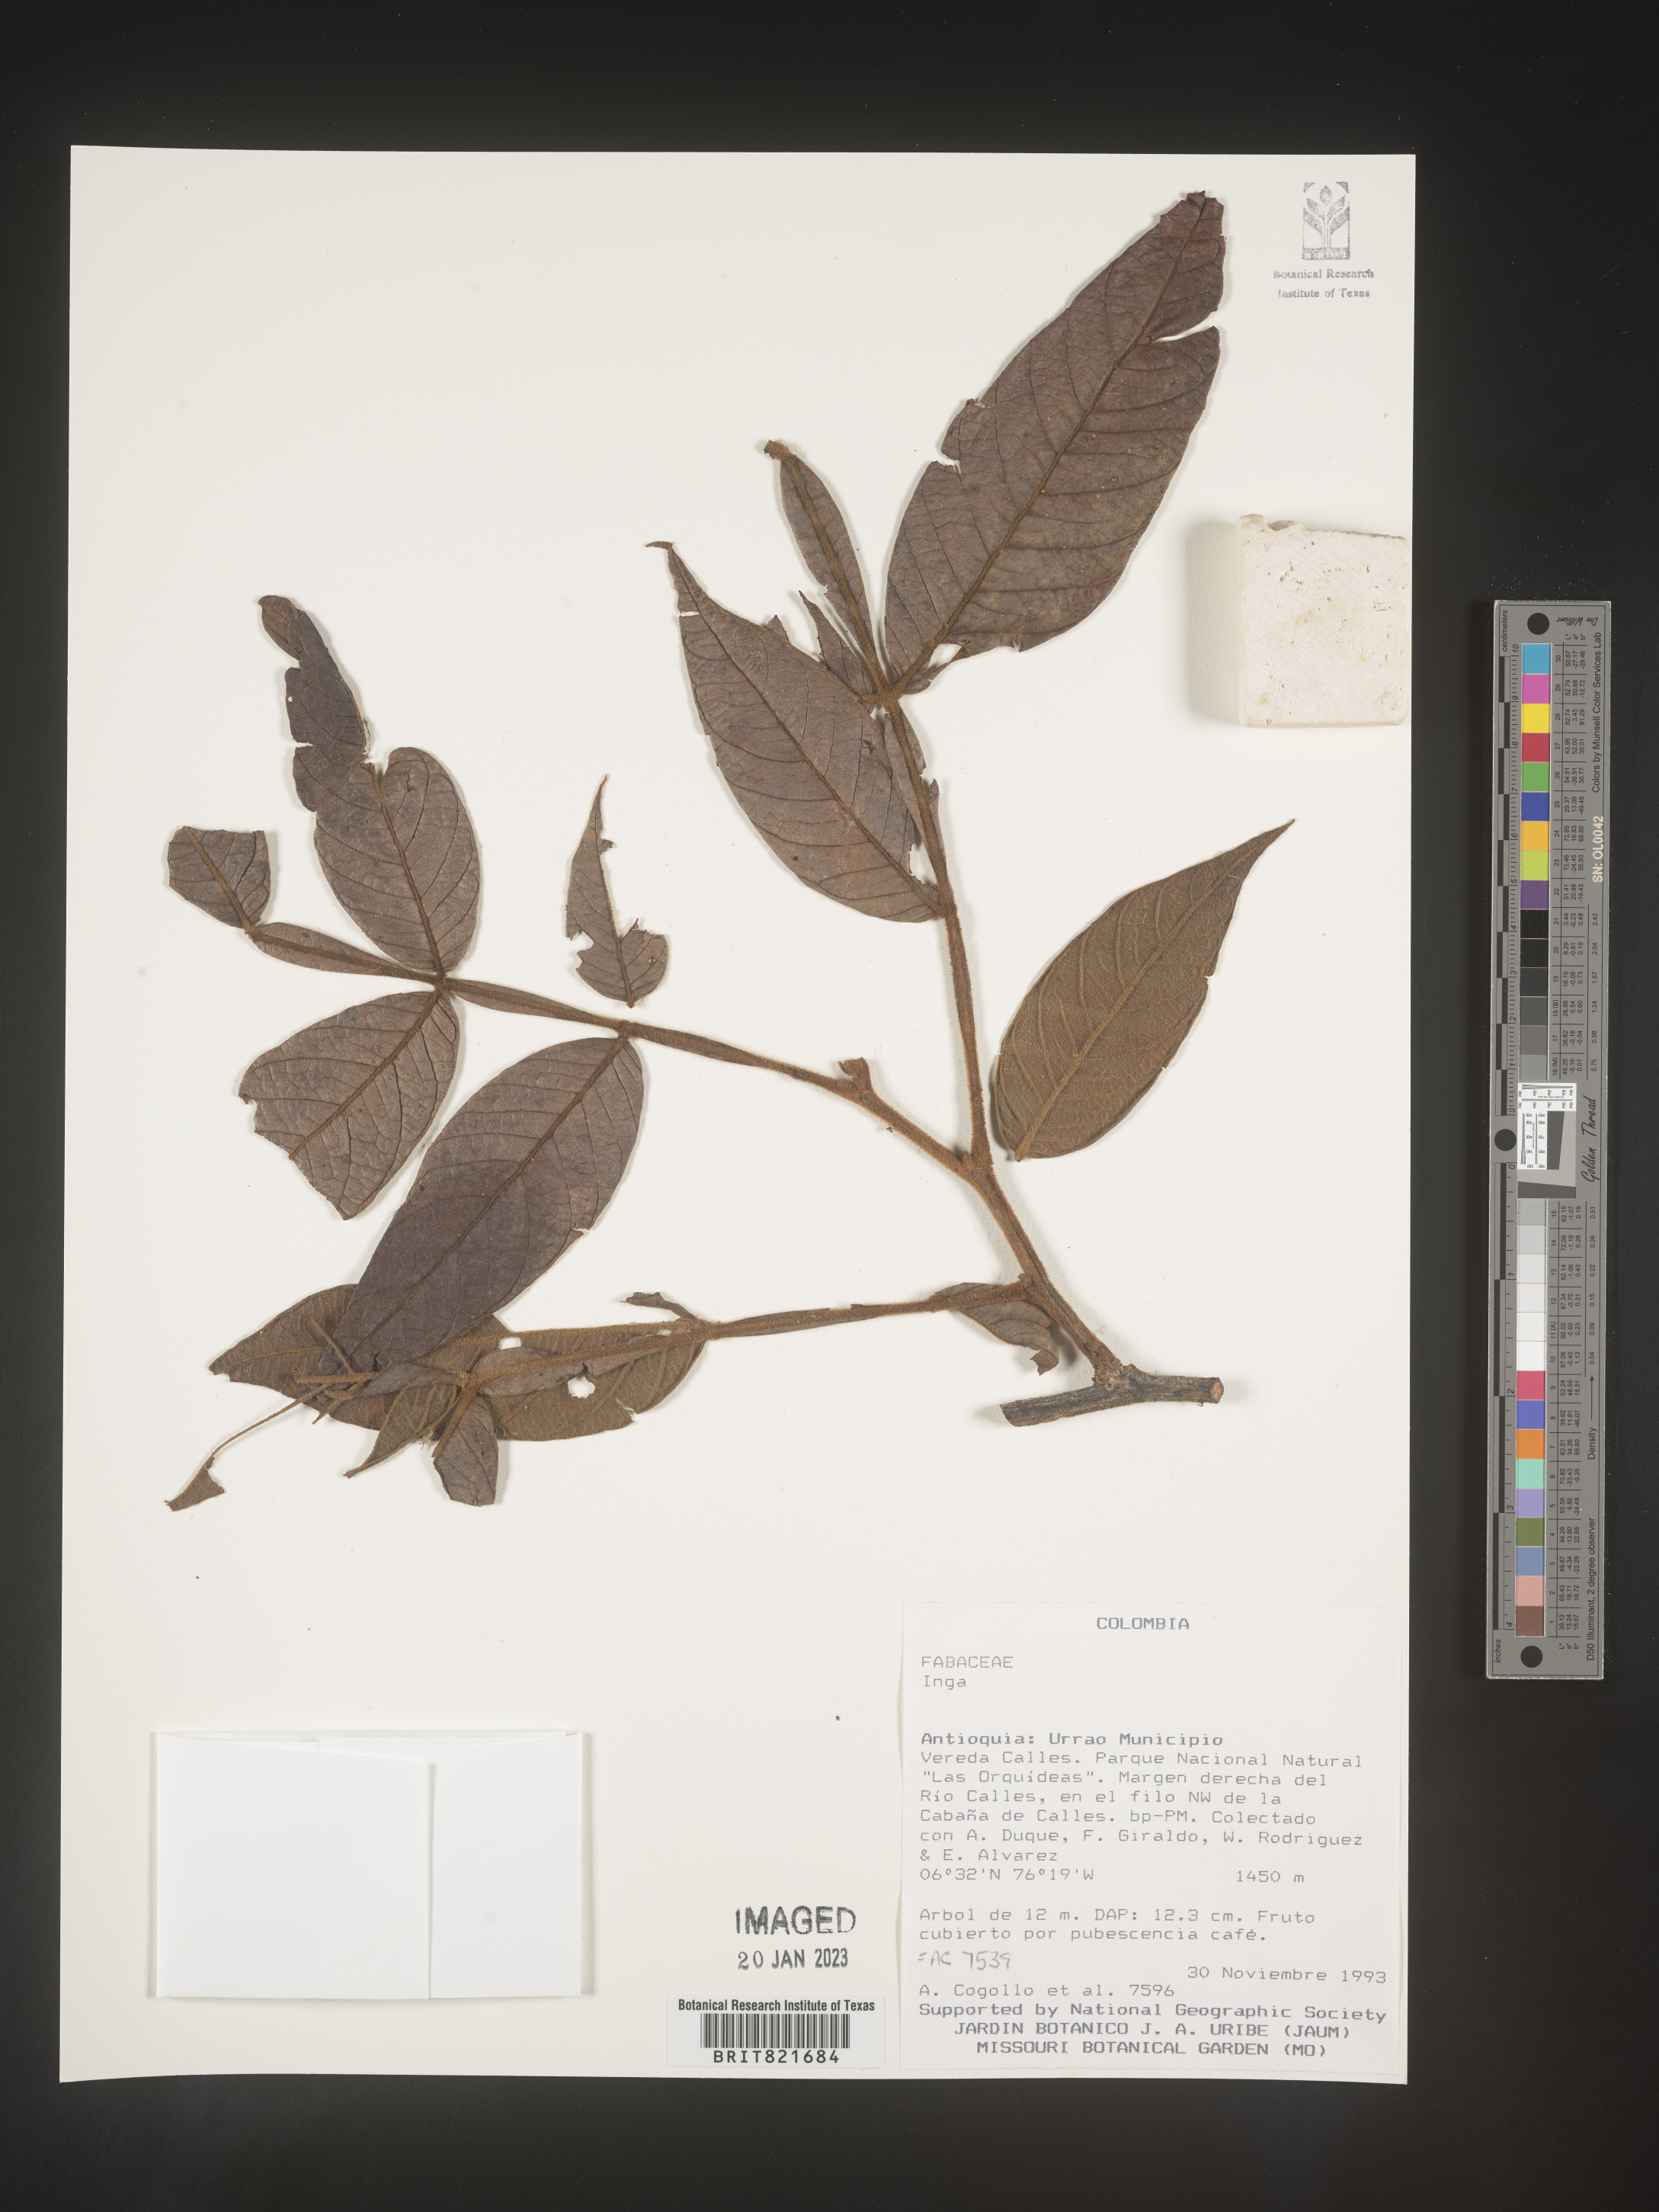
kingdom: Plantae
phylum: Tracheophyta
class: Magnoliopsida
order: Fabales
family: Fabaceae
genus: Inga
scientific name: Inga
